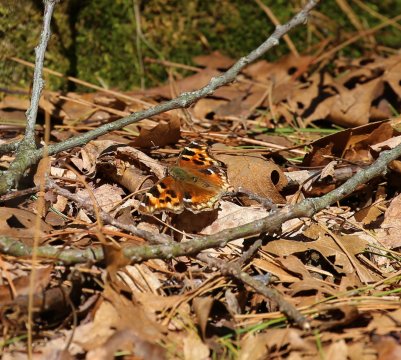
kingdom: Animalia
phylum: Arthropoda
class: Insecta
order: Lepidoptera
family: Nymphalidae
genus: Polygonia
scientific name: Polygonia vaualbum
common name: Compton Tortoiseshell
